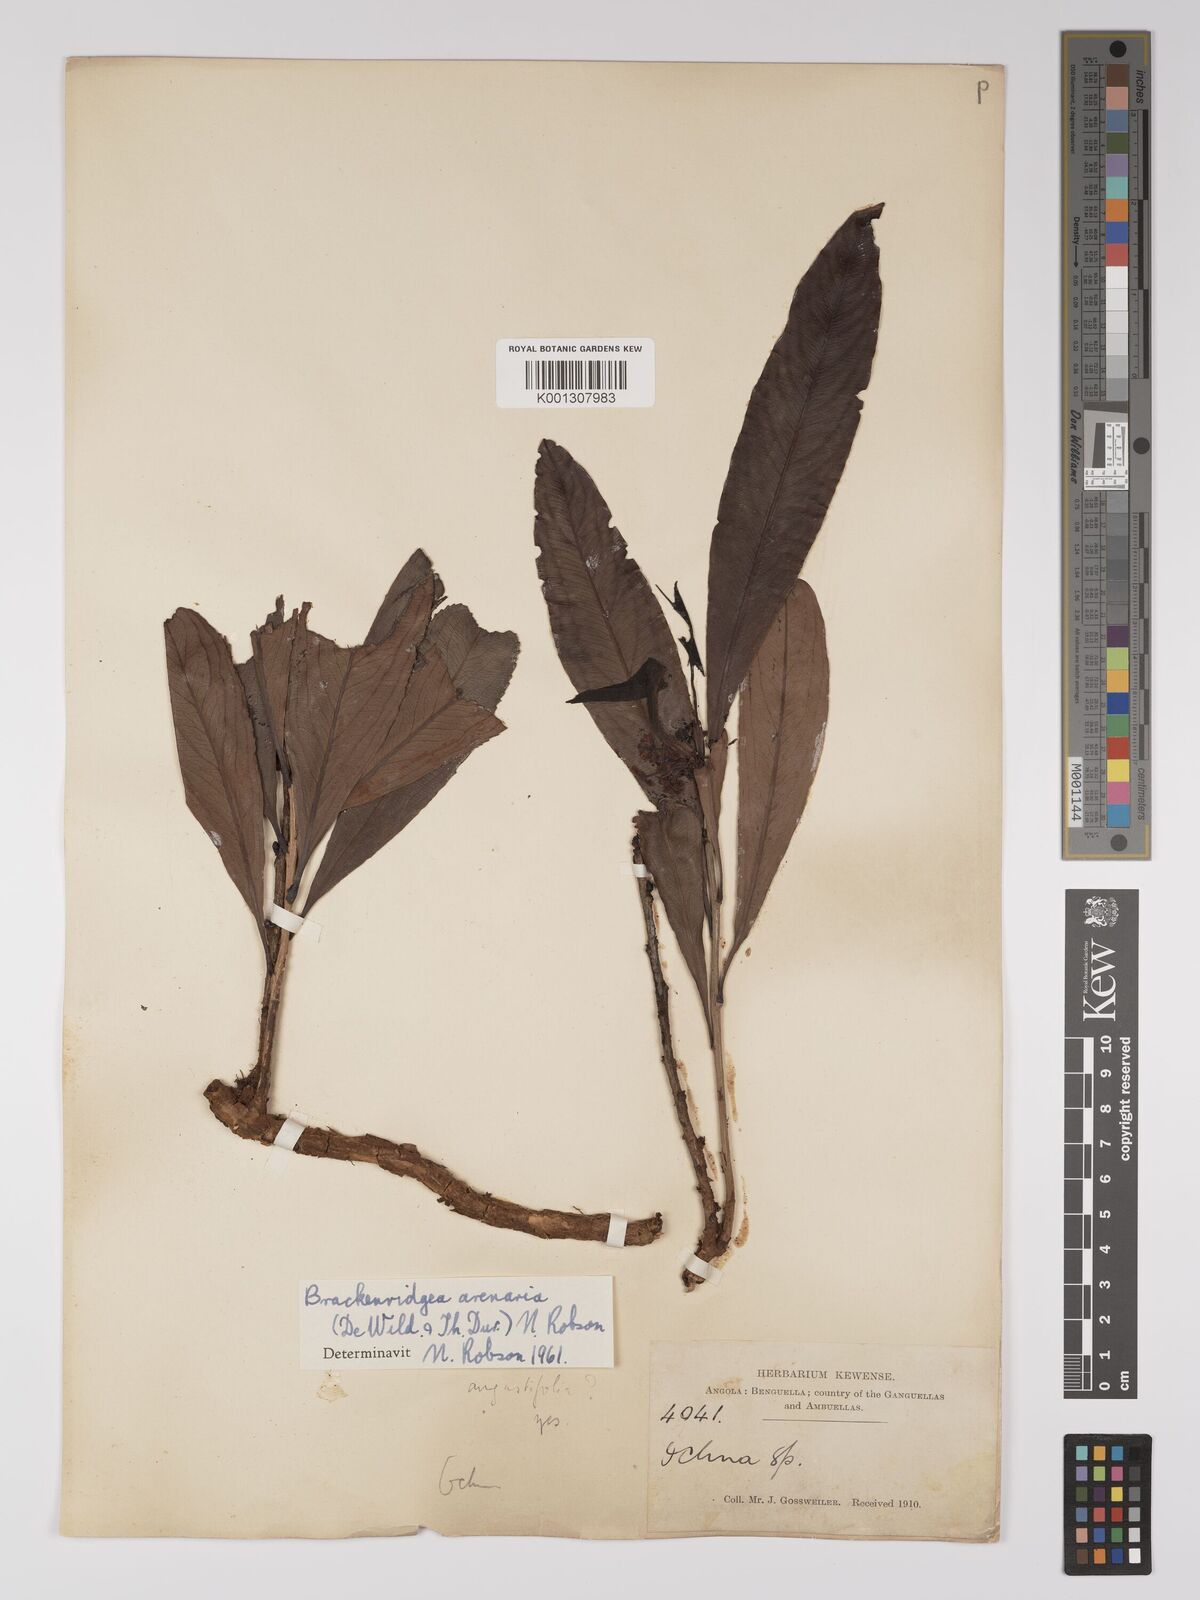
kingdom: Plantae
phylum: Tracheophyta
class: Magnoliopsida
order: Malpighiales
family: Ochnaceae
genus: Brackenridgea
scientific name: Brackenridgea
